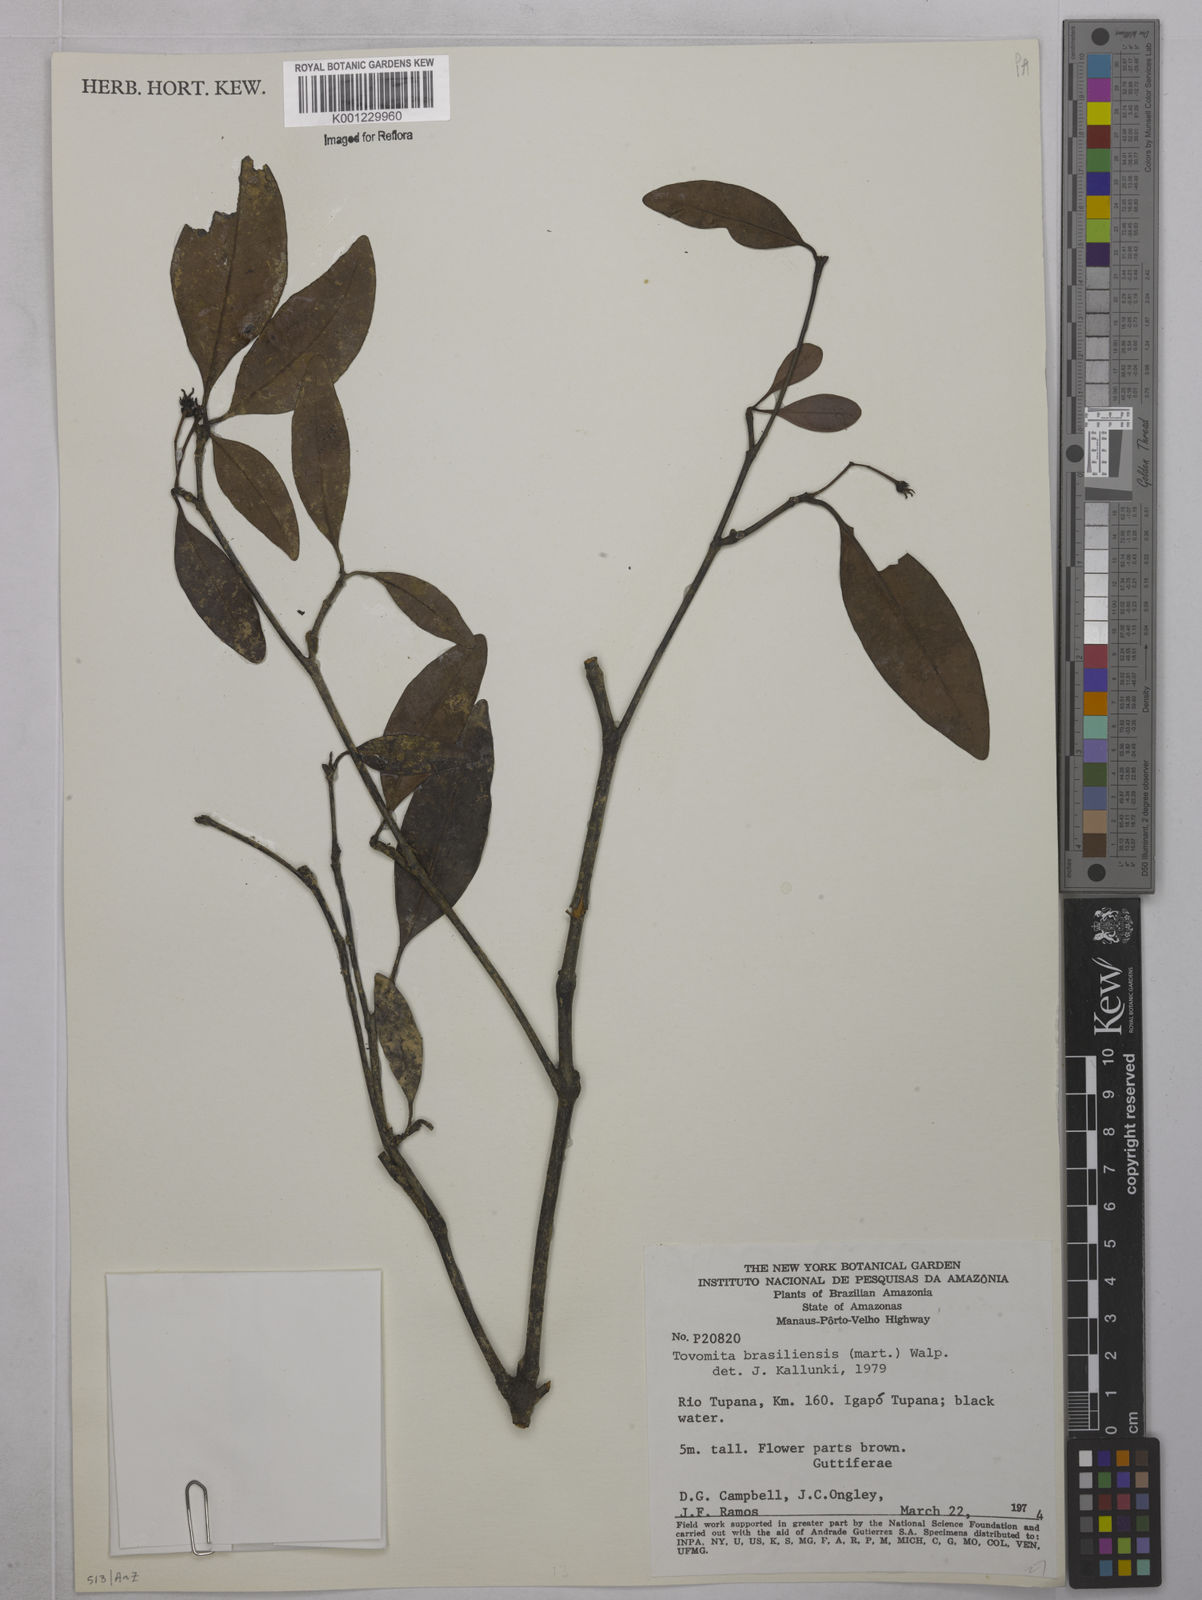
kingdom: Plantae
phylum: Tracheophyta
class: Magnoliopsida
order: Malpighiales
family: Clusiaceae
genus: Tovomita
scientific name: Tovomita
